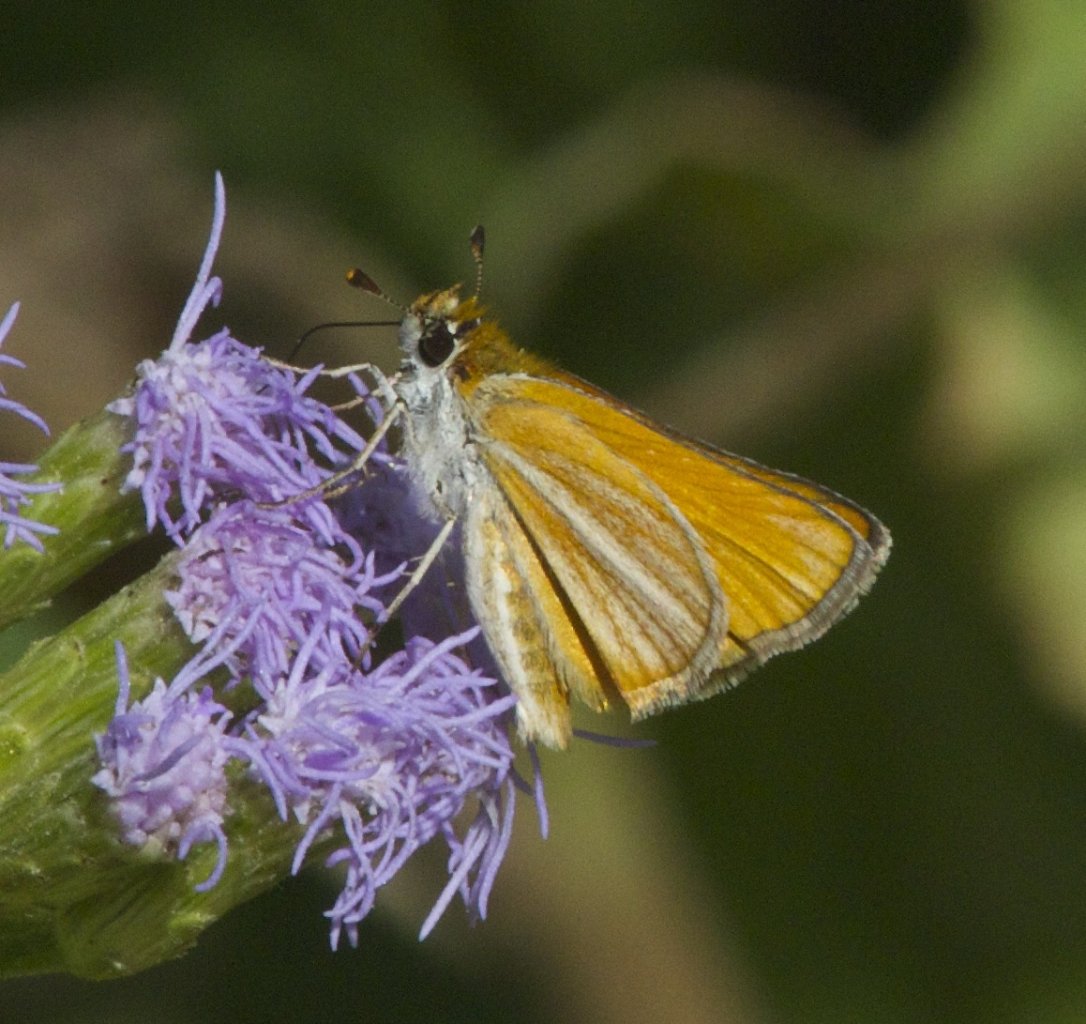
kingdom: Animalia
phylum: Arthropoda
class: Insecta
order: Lepidoptera
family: Hesperiidae
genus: Copaeodes
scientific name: Copaeodes minima
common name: Southern Skipperling
